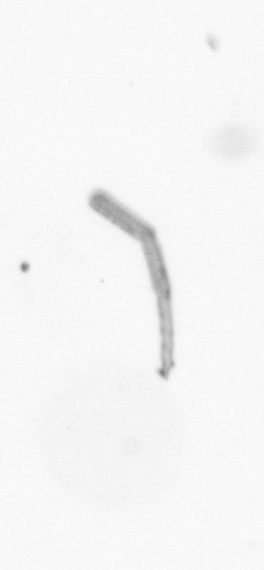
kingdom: Chromista
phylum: Ochrophyta
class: Bacillariophyceae
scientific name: Bacillariophyceae
